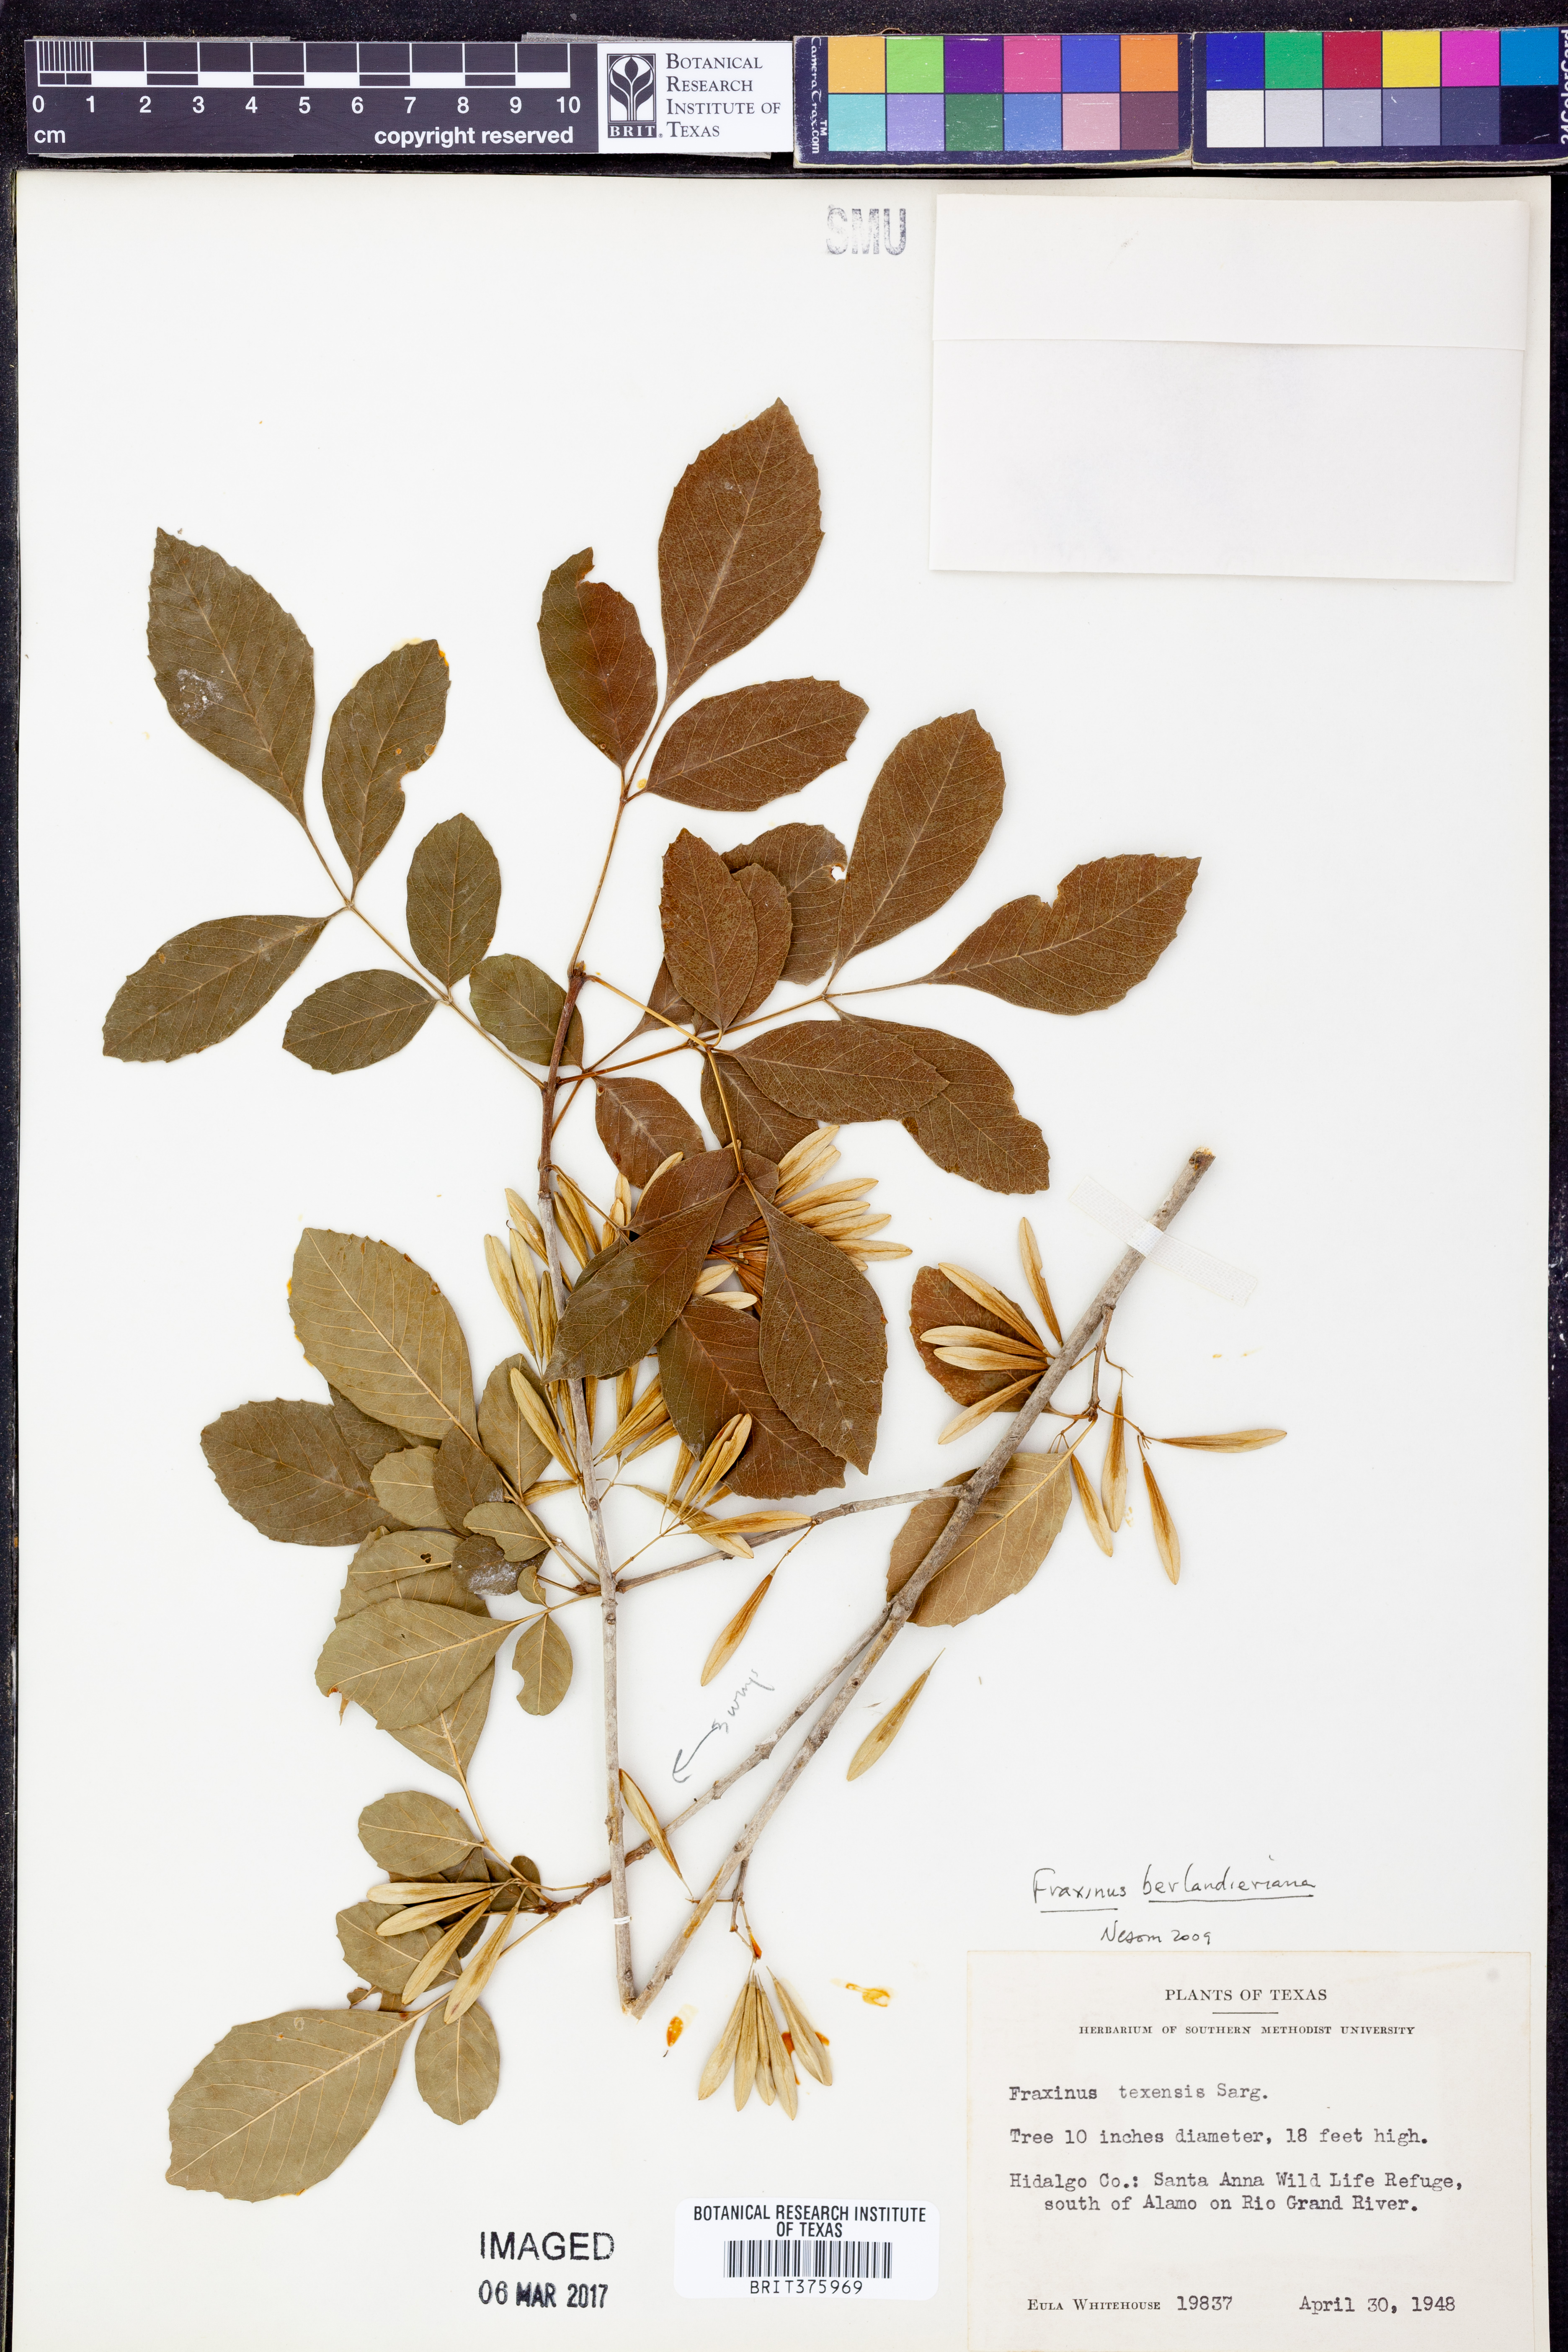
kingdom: Plantae
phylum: Tracheophyta
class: Magnoliopsida
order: Lamiales
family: Oleaceae
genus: Fraxinus
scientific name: Fraxinus berlandieriana
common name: Berlandier ash
